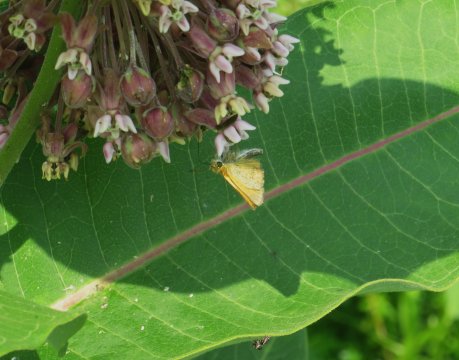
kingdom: Animalia
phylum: Arthropoda
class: Insecta
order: Lepidoptera
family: Hesperiidae
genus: Thymelicus
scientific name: Thymelicus lineola
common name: European Skipper
